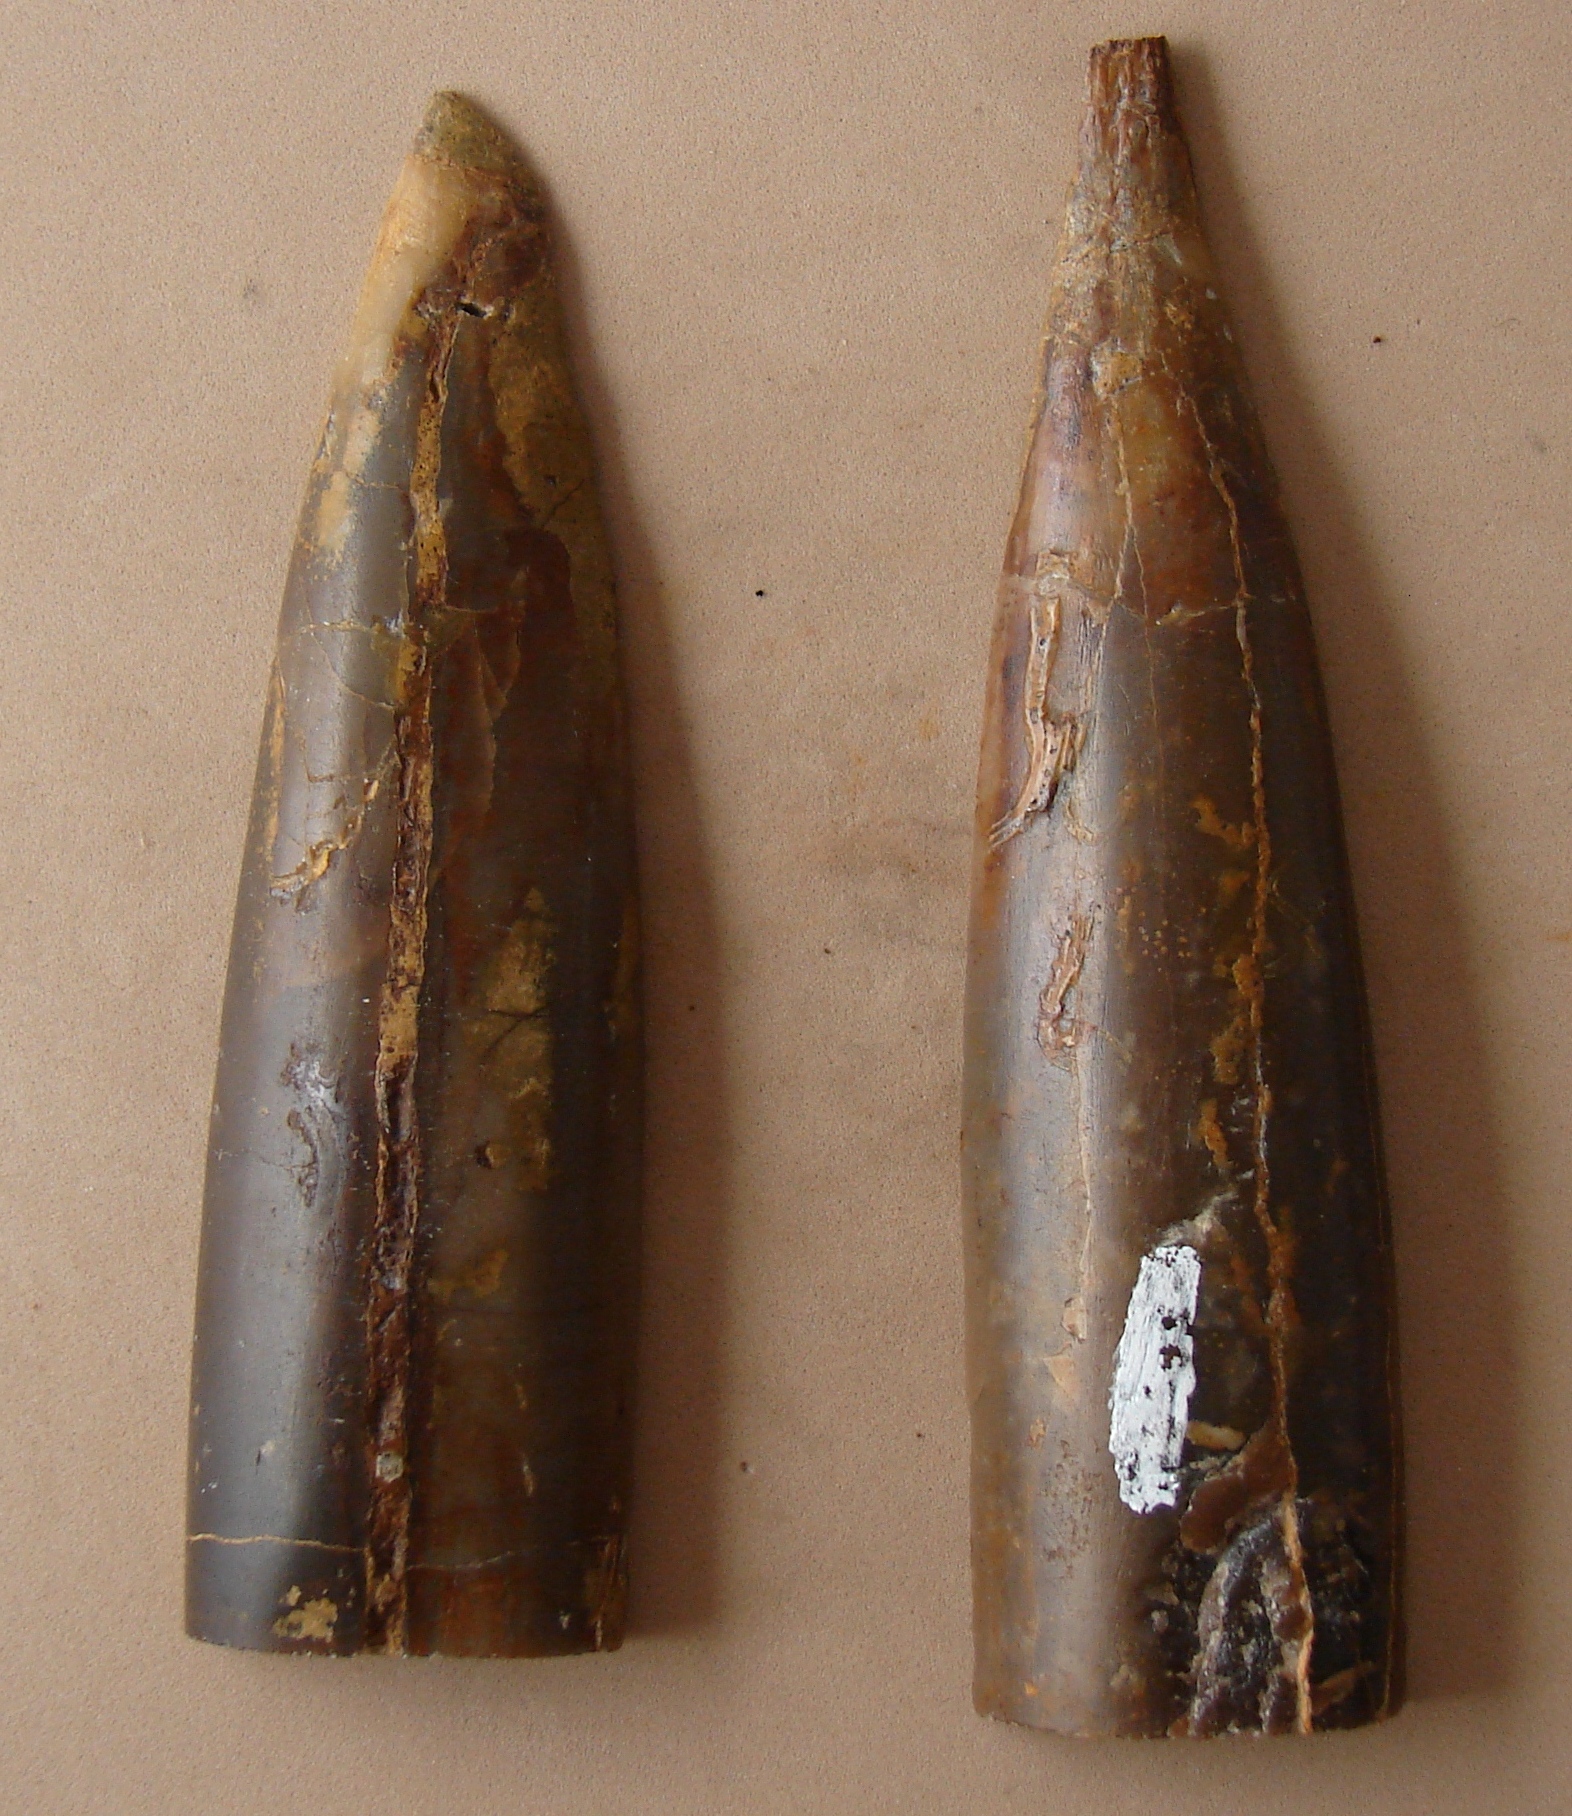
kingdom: Animalia
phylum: Mollusca
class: Cephalopoda
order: Belemnitida
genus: Eocylindroteuthis
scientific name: Eocylindroteuthis
